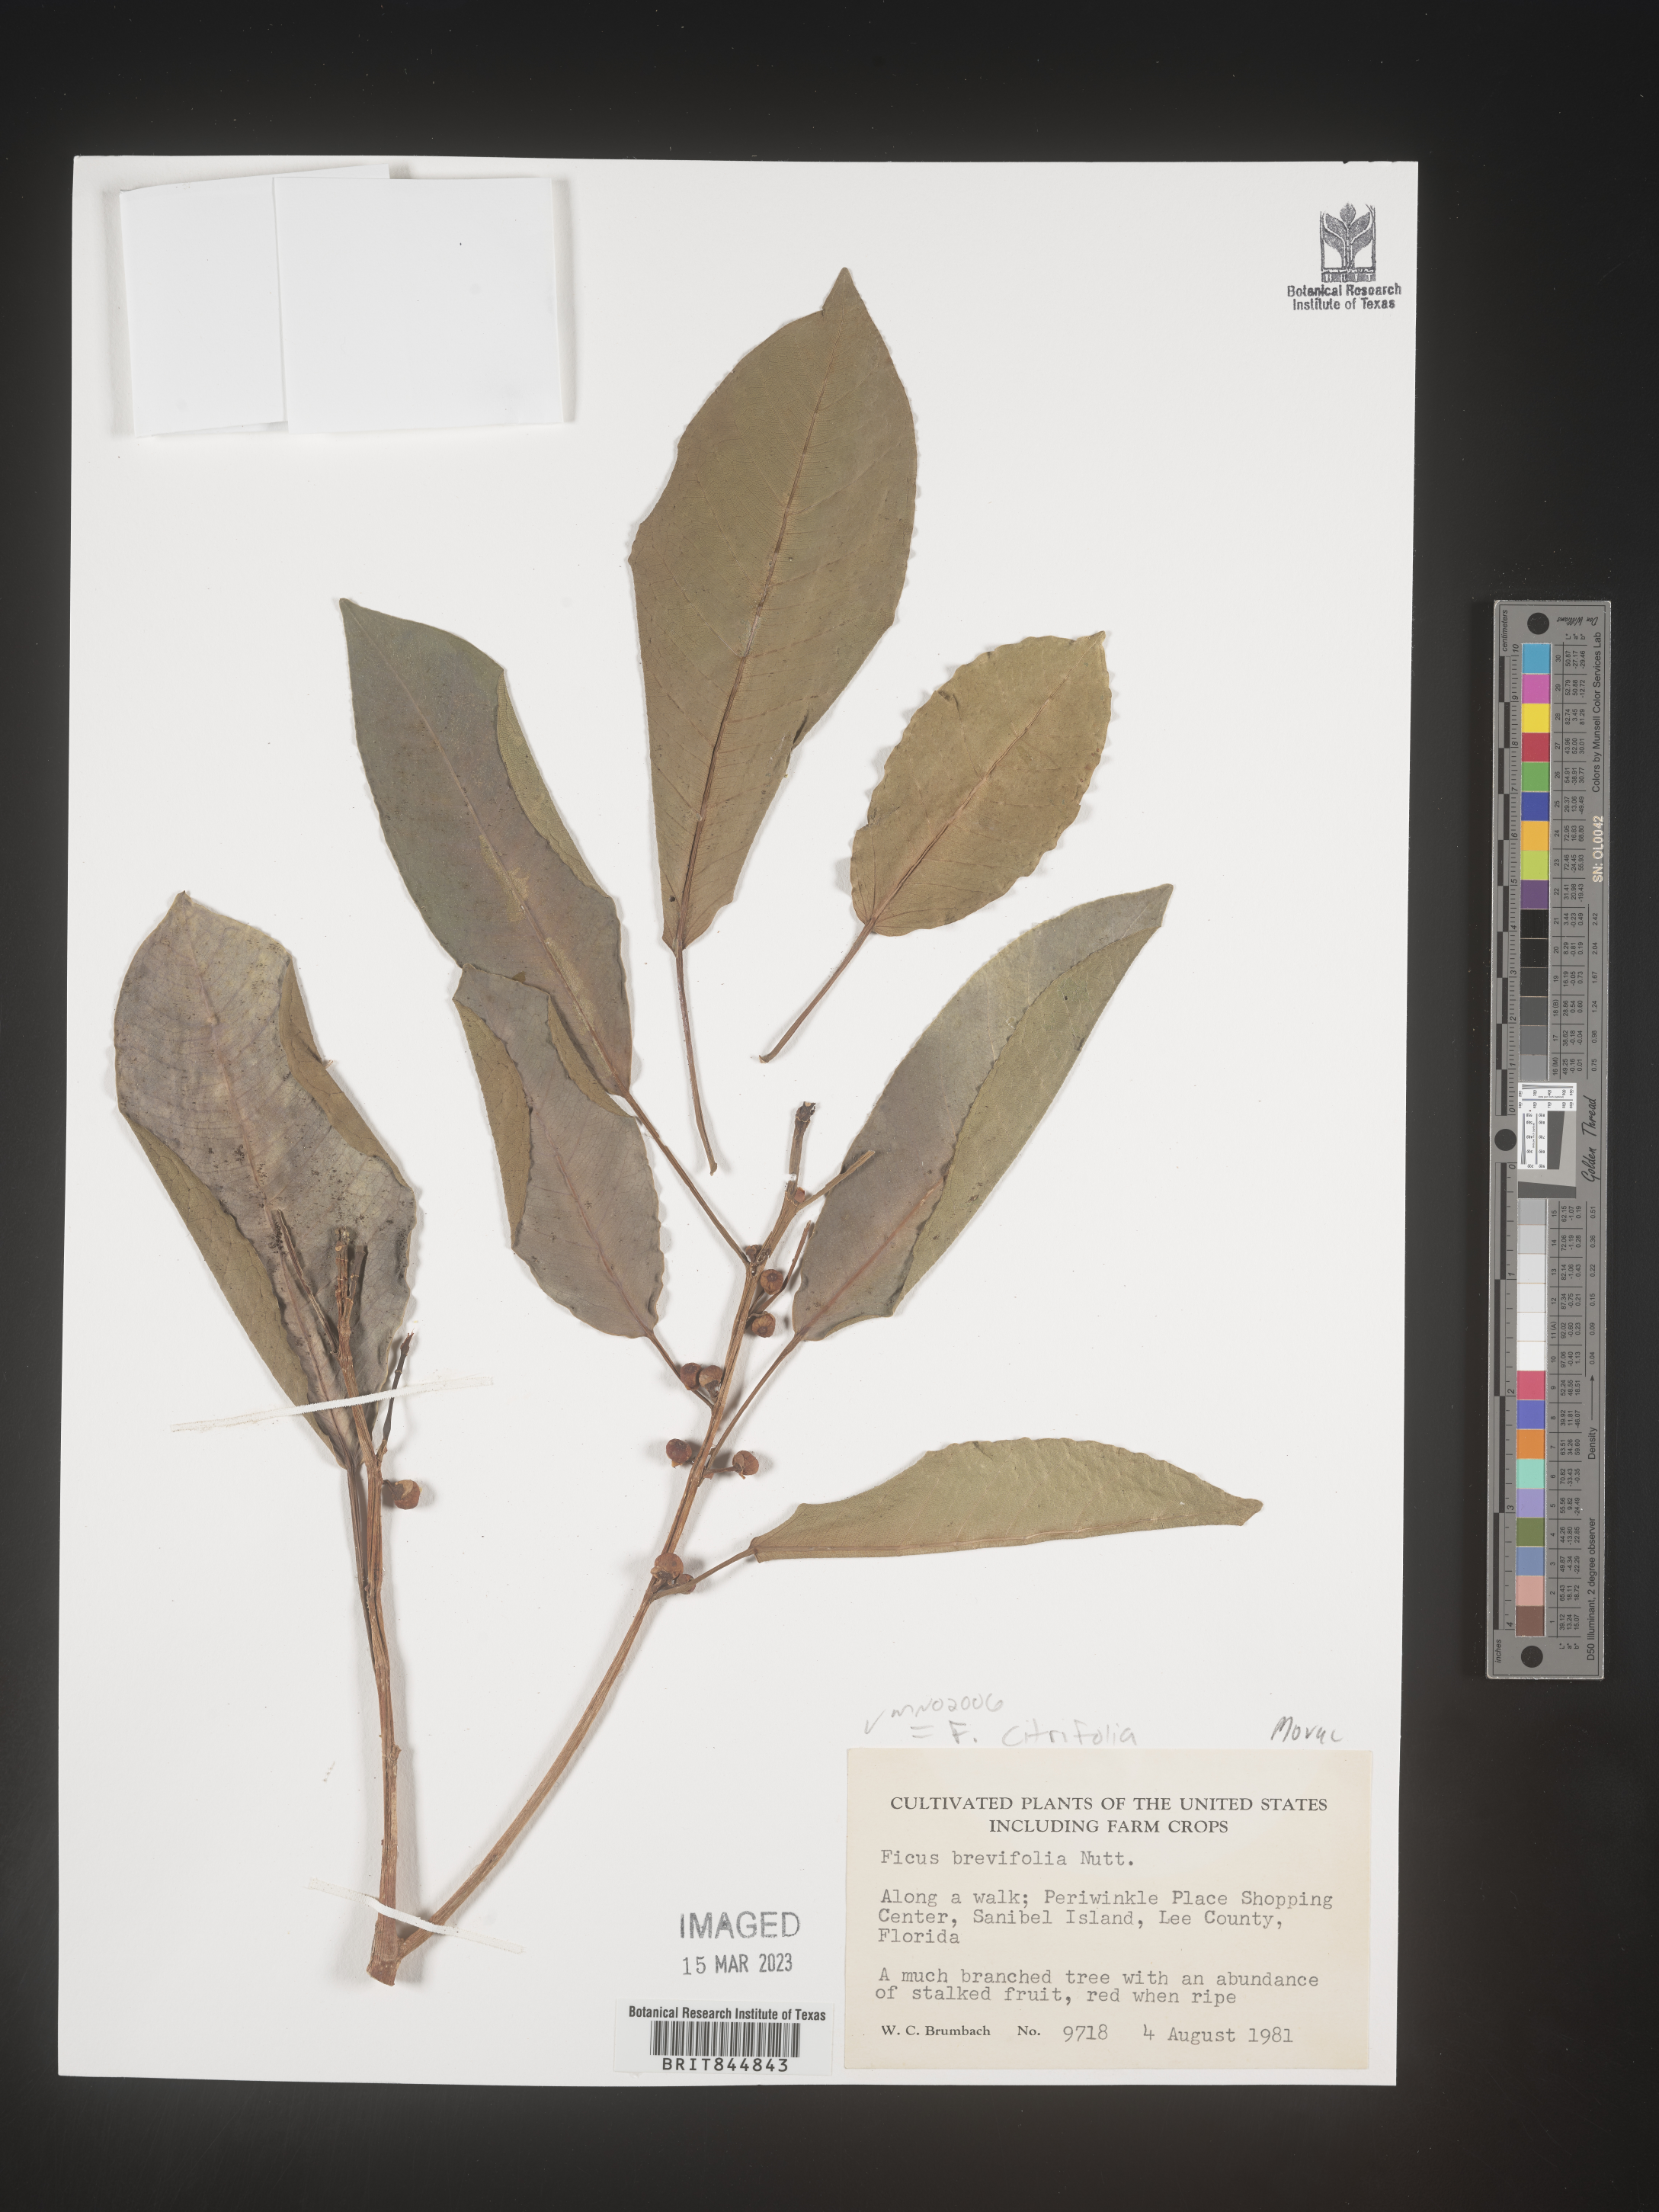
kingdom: Plantae
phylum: Tracheophyta
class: Magnoliopsida
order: Rosales
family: Moraceae
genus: Ficus
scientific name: Ficus
